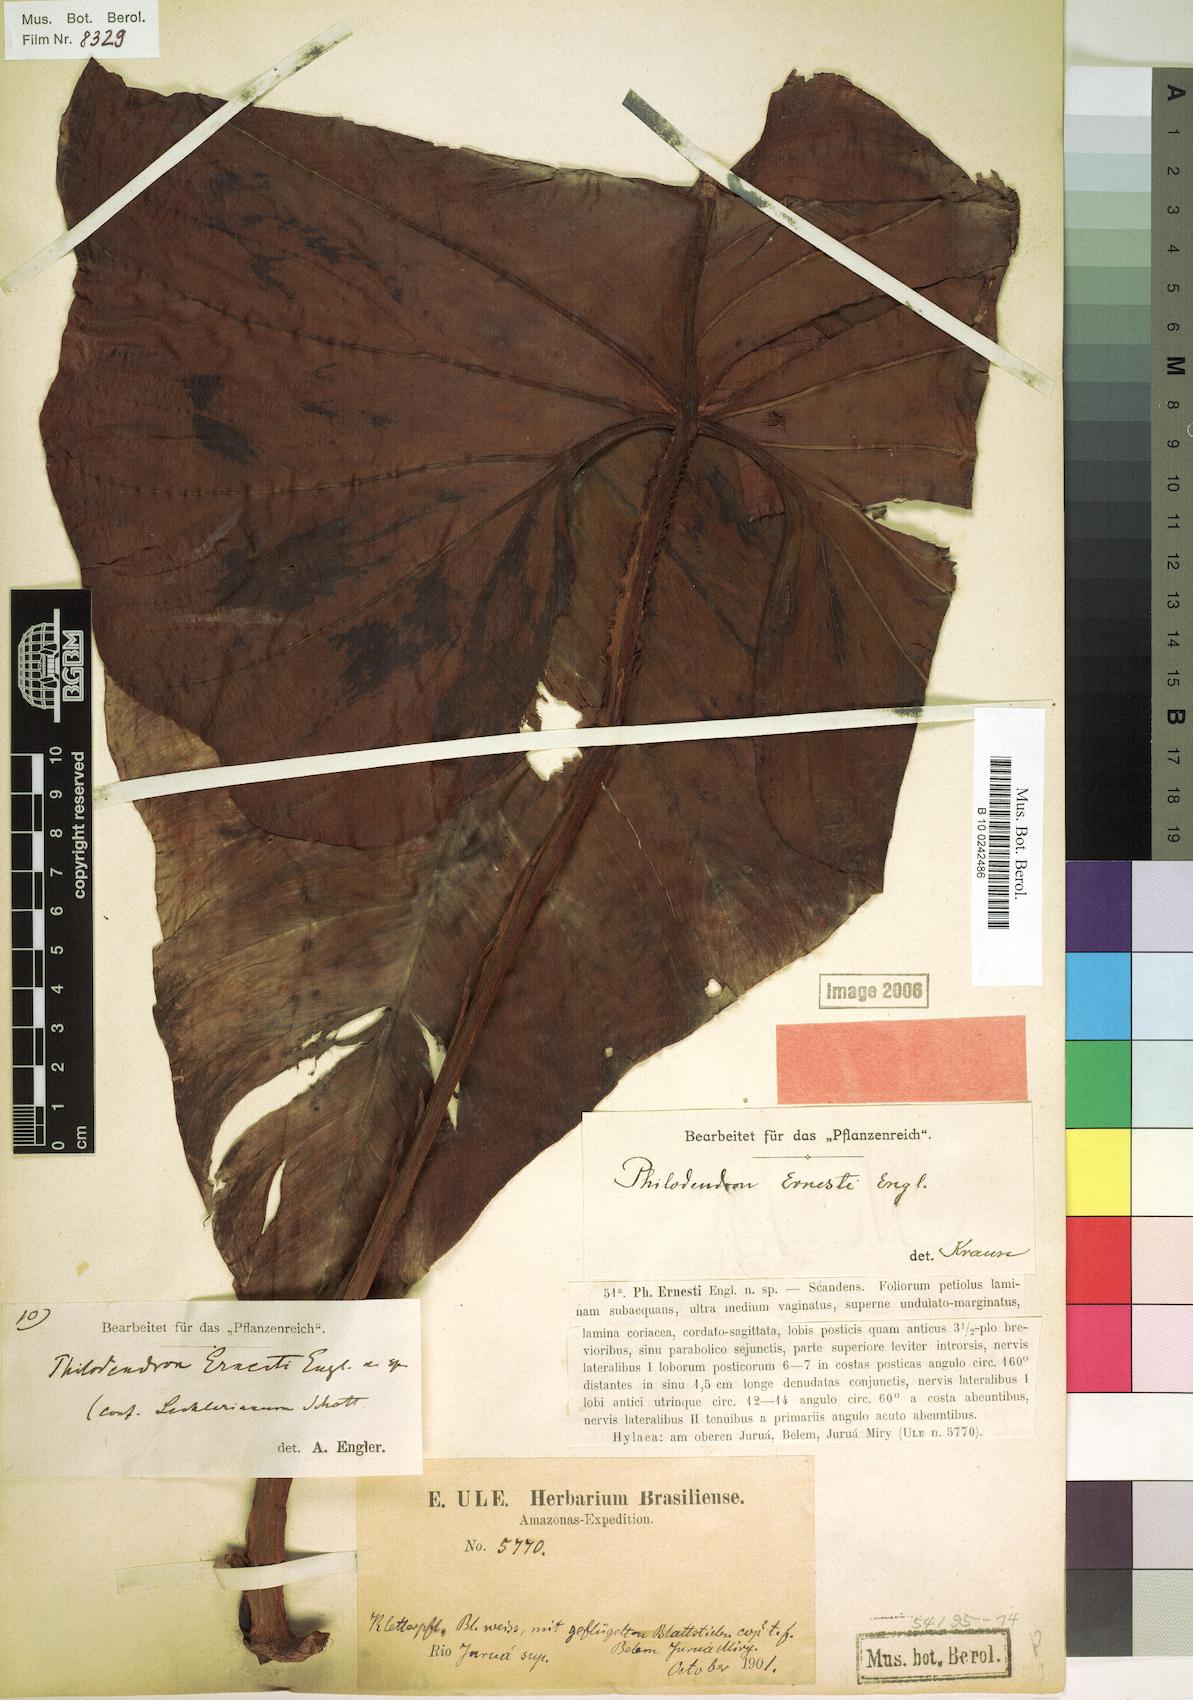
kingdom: Plantae
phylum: Tracheophyta
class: Liliopsida
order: Alismatales
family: Araceae
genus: Philodendron
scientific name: Philodendron ernestii
